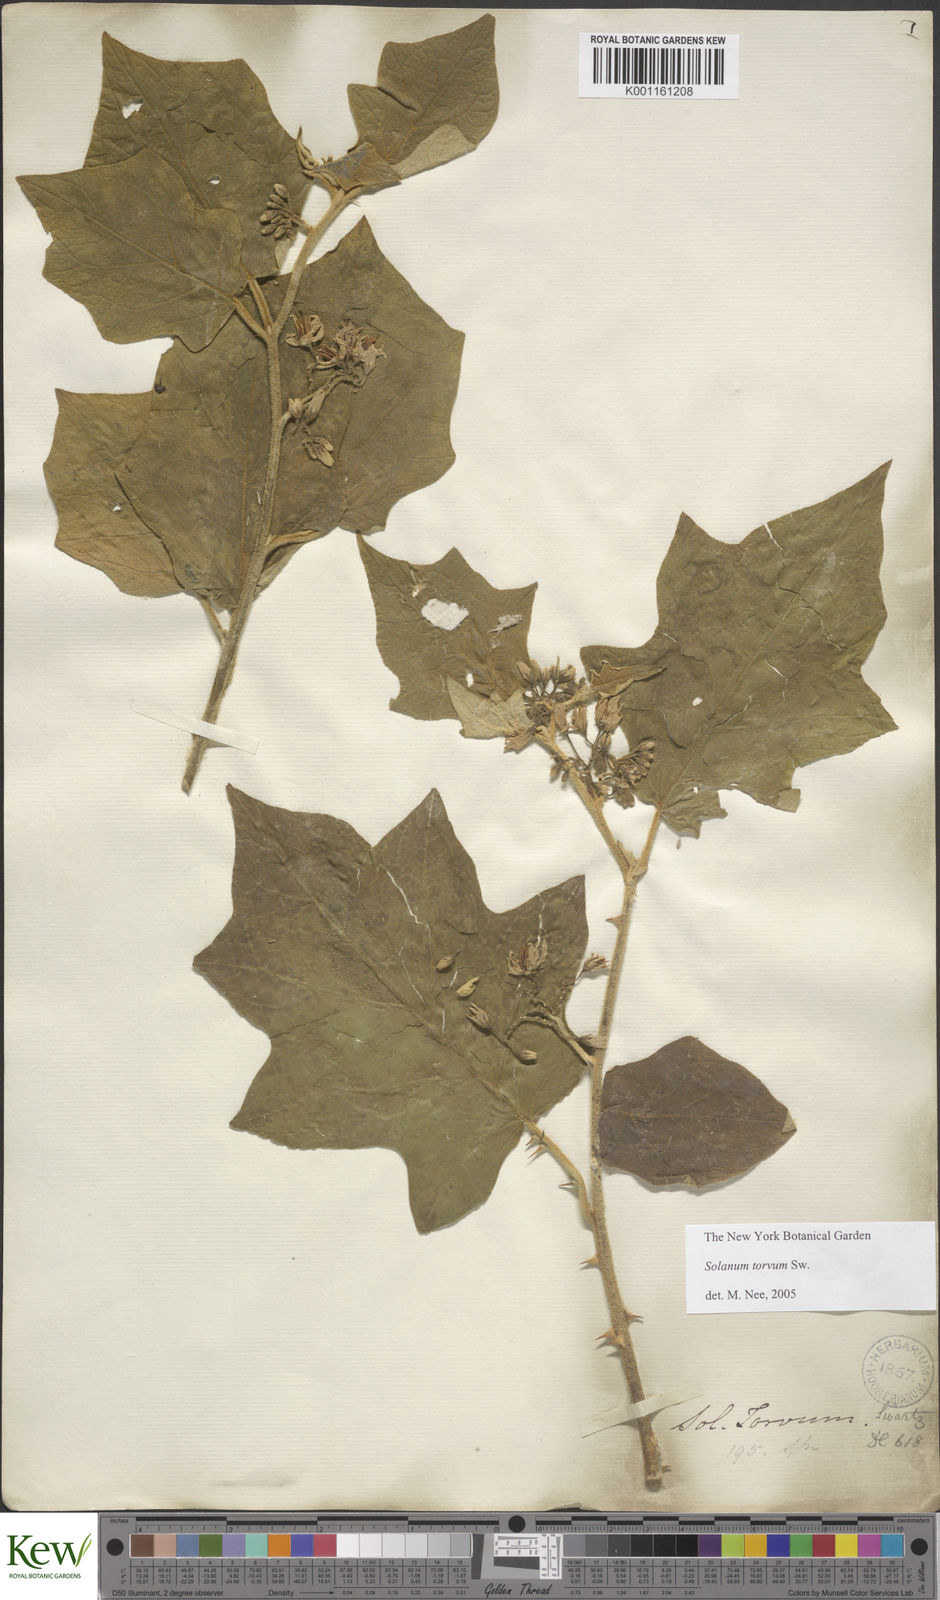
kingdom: Plantae
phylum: Tracheophyta
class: Magnoliopsida
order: Solanales
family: Solanaceae
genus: Solanum
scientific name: Solanum torvum
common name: Turkey berry
